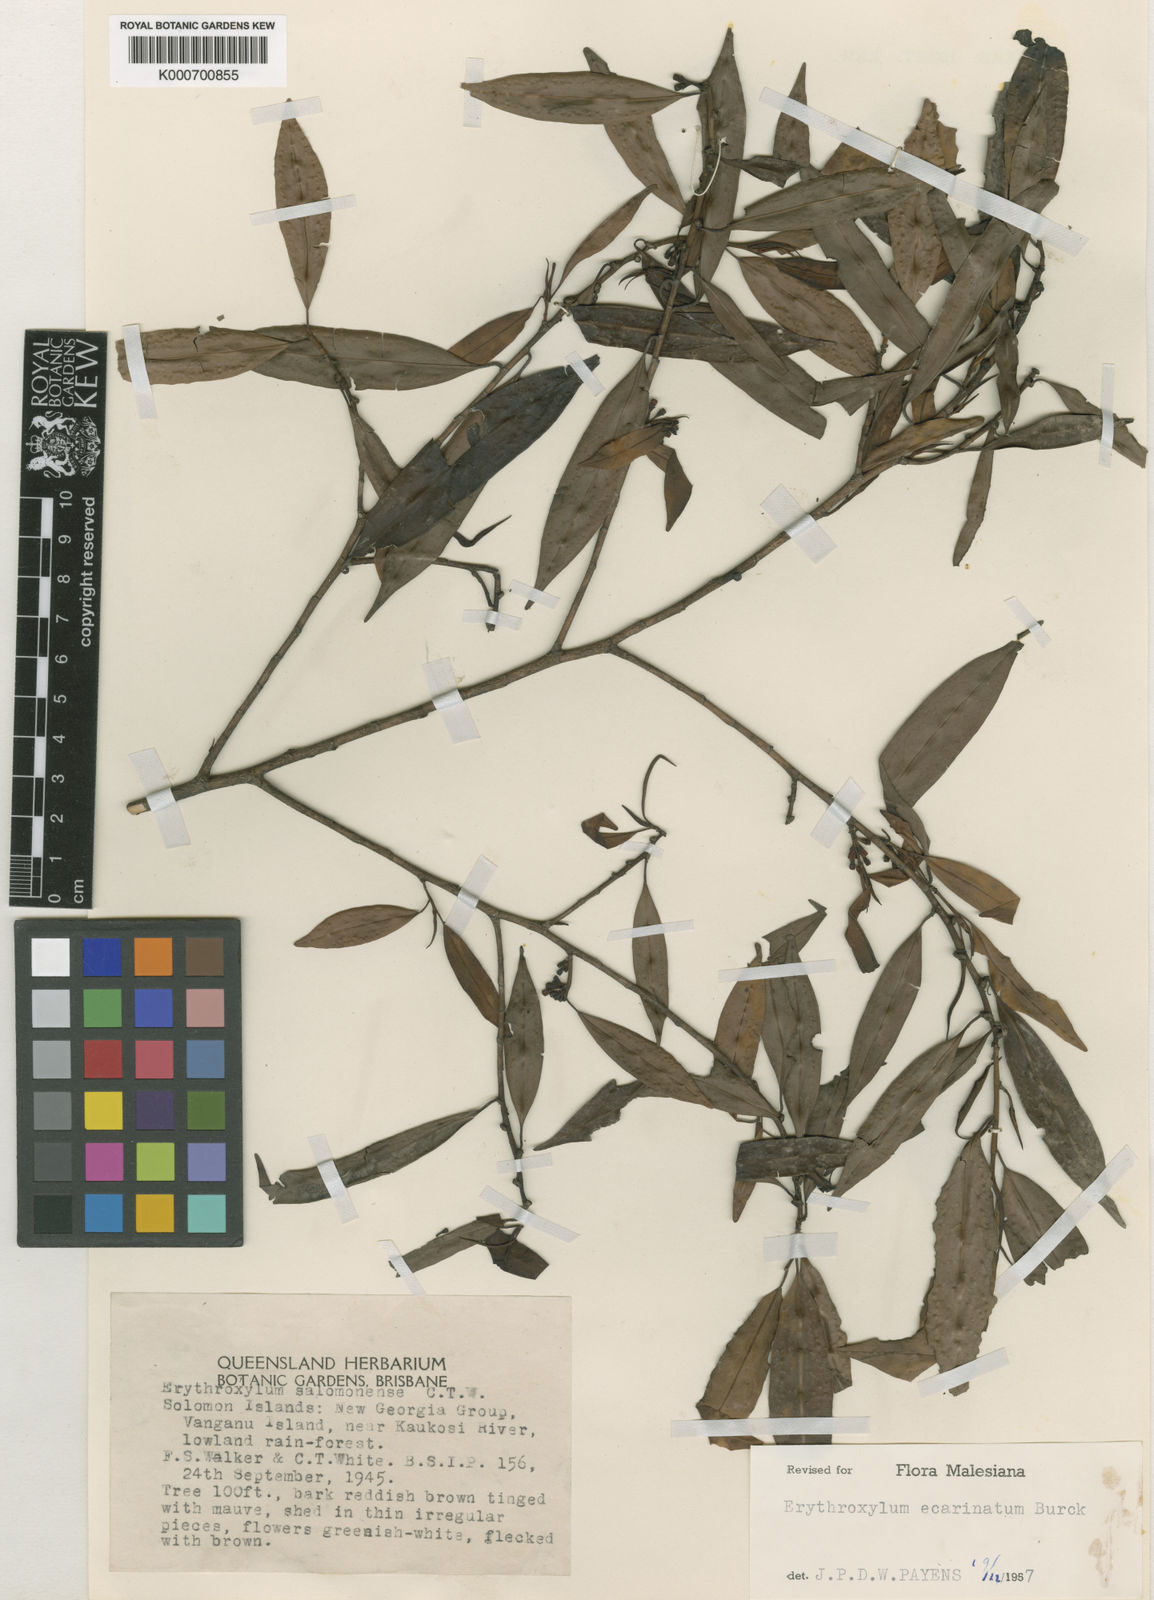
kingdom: Plantae
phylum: Tracheophyta
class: Magnoliopsida
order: Malpighiales
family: Erythroxylaceae
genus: Erythroxylum
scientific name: Erythroxylum
